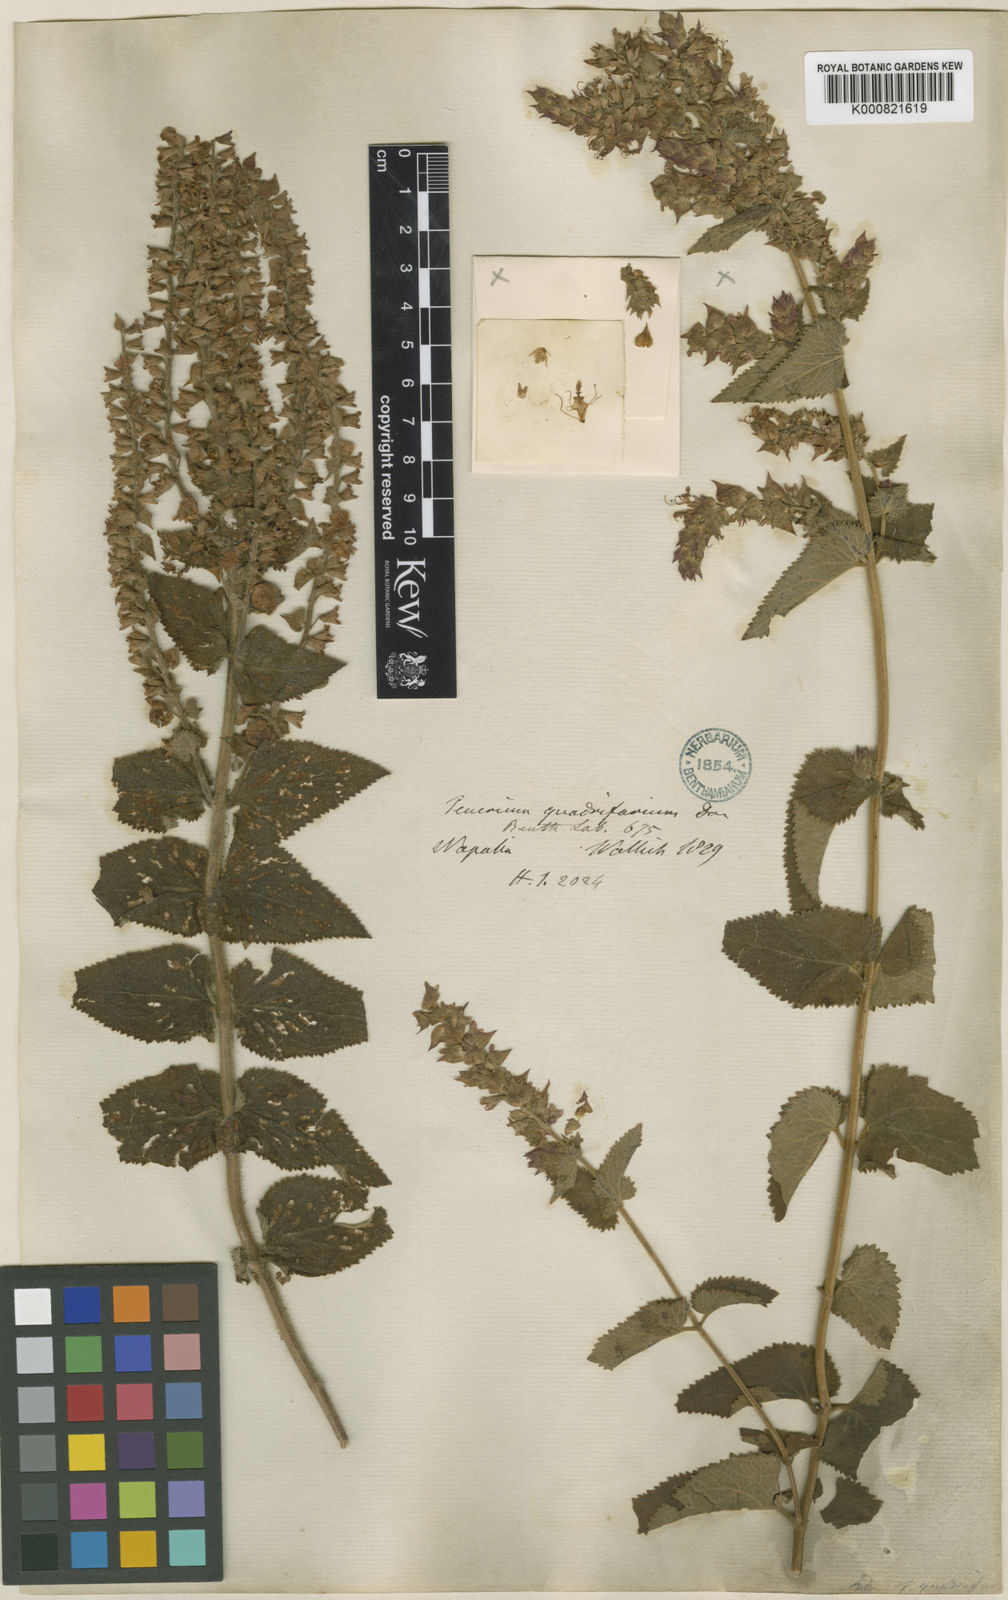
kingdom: Plantae
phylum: Tracheophyta
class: Magnoliopsida
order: Lamiales
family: Lamiaceae
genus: Teucrium
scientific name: Teucrium
